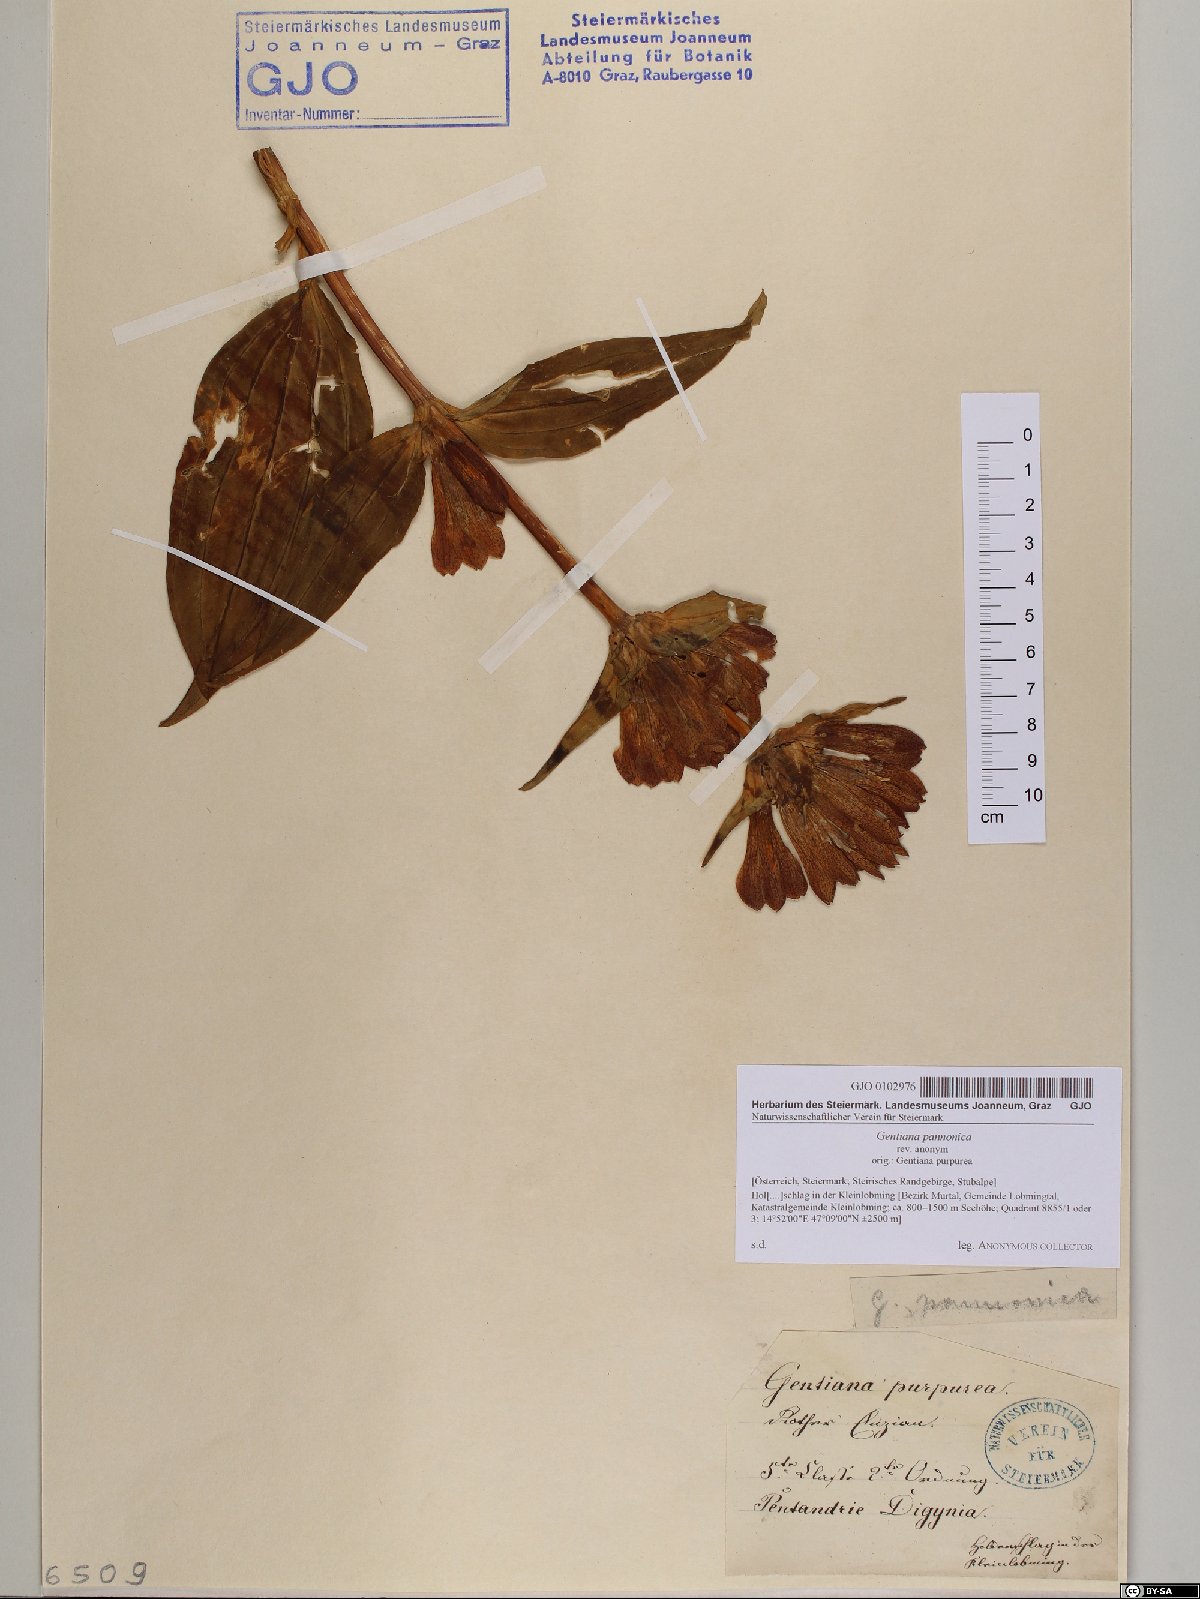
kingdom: Plantae
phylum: Tracheophyta
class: Magnoliopsida
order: Gentianales
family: Gentianaceae
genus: Gentiana
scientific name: Gentiana pannonica
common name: Hungarian gentian
